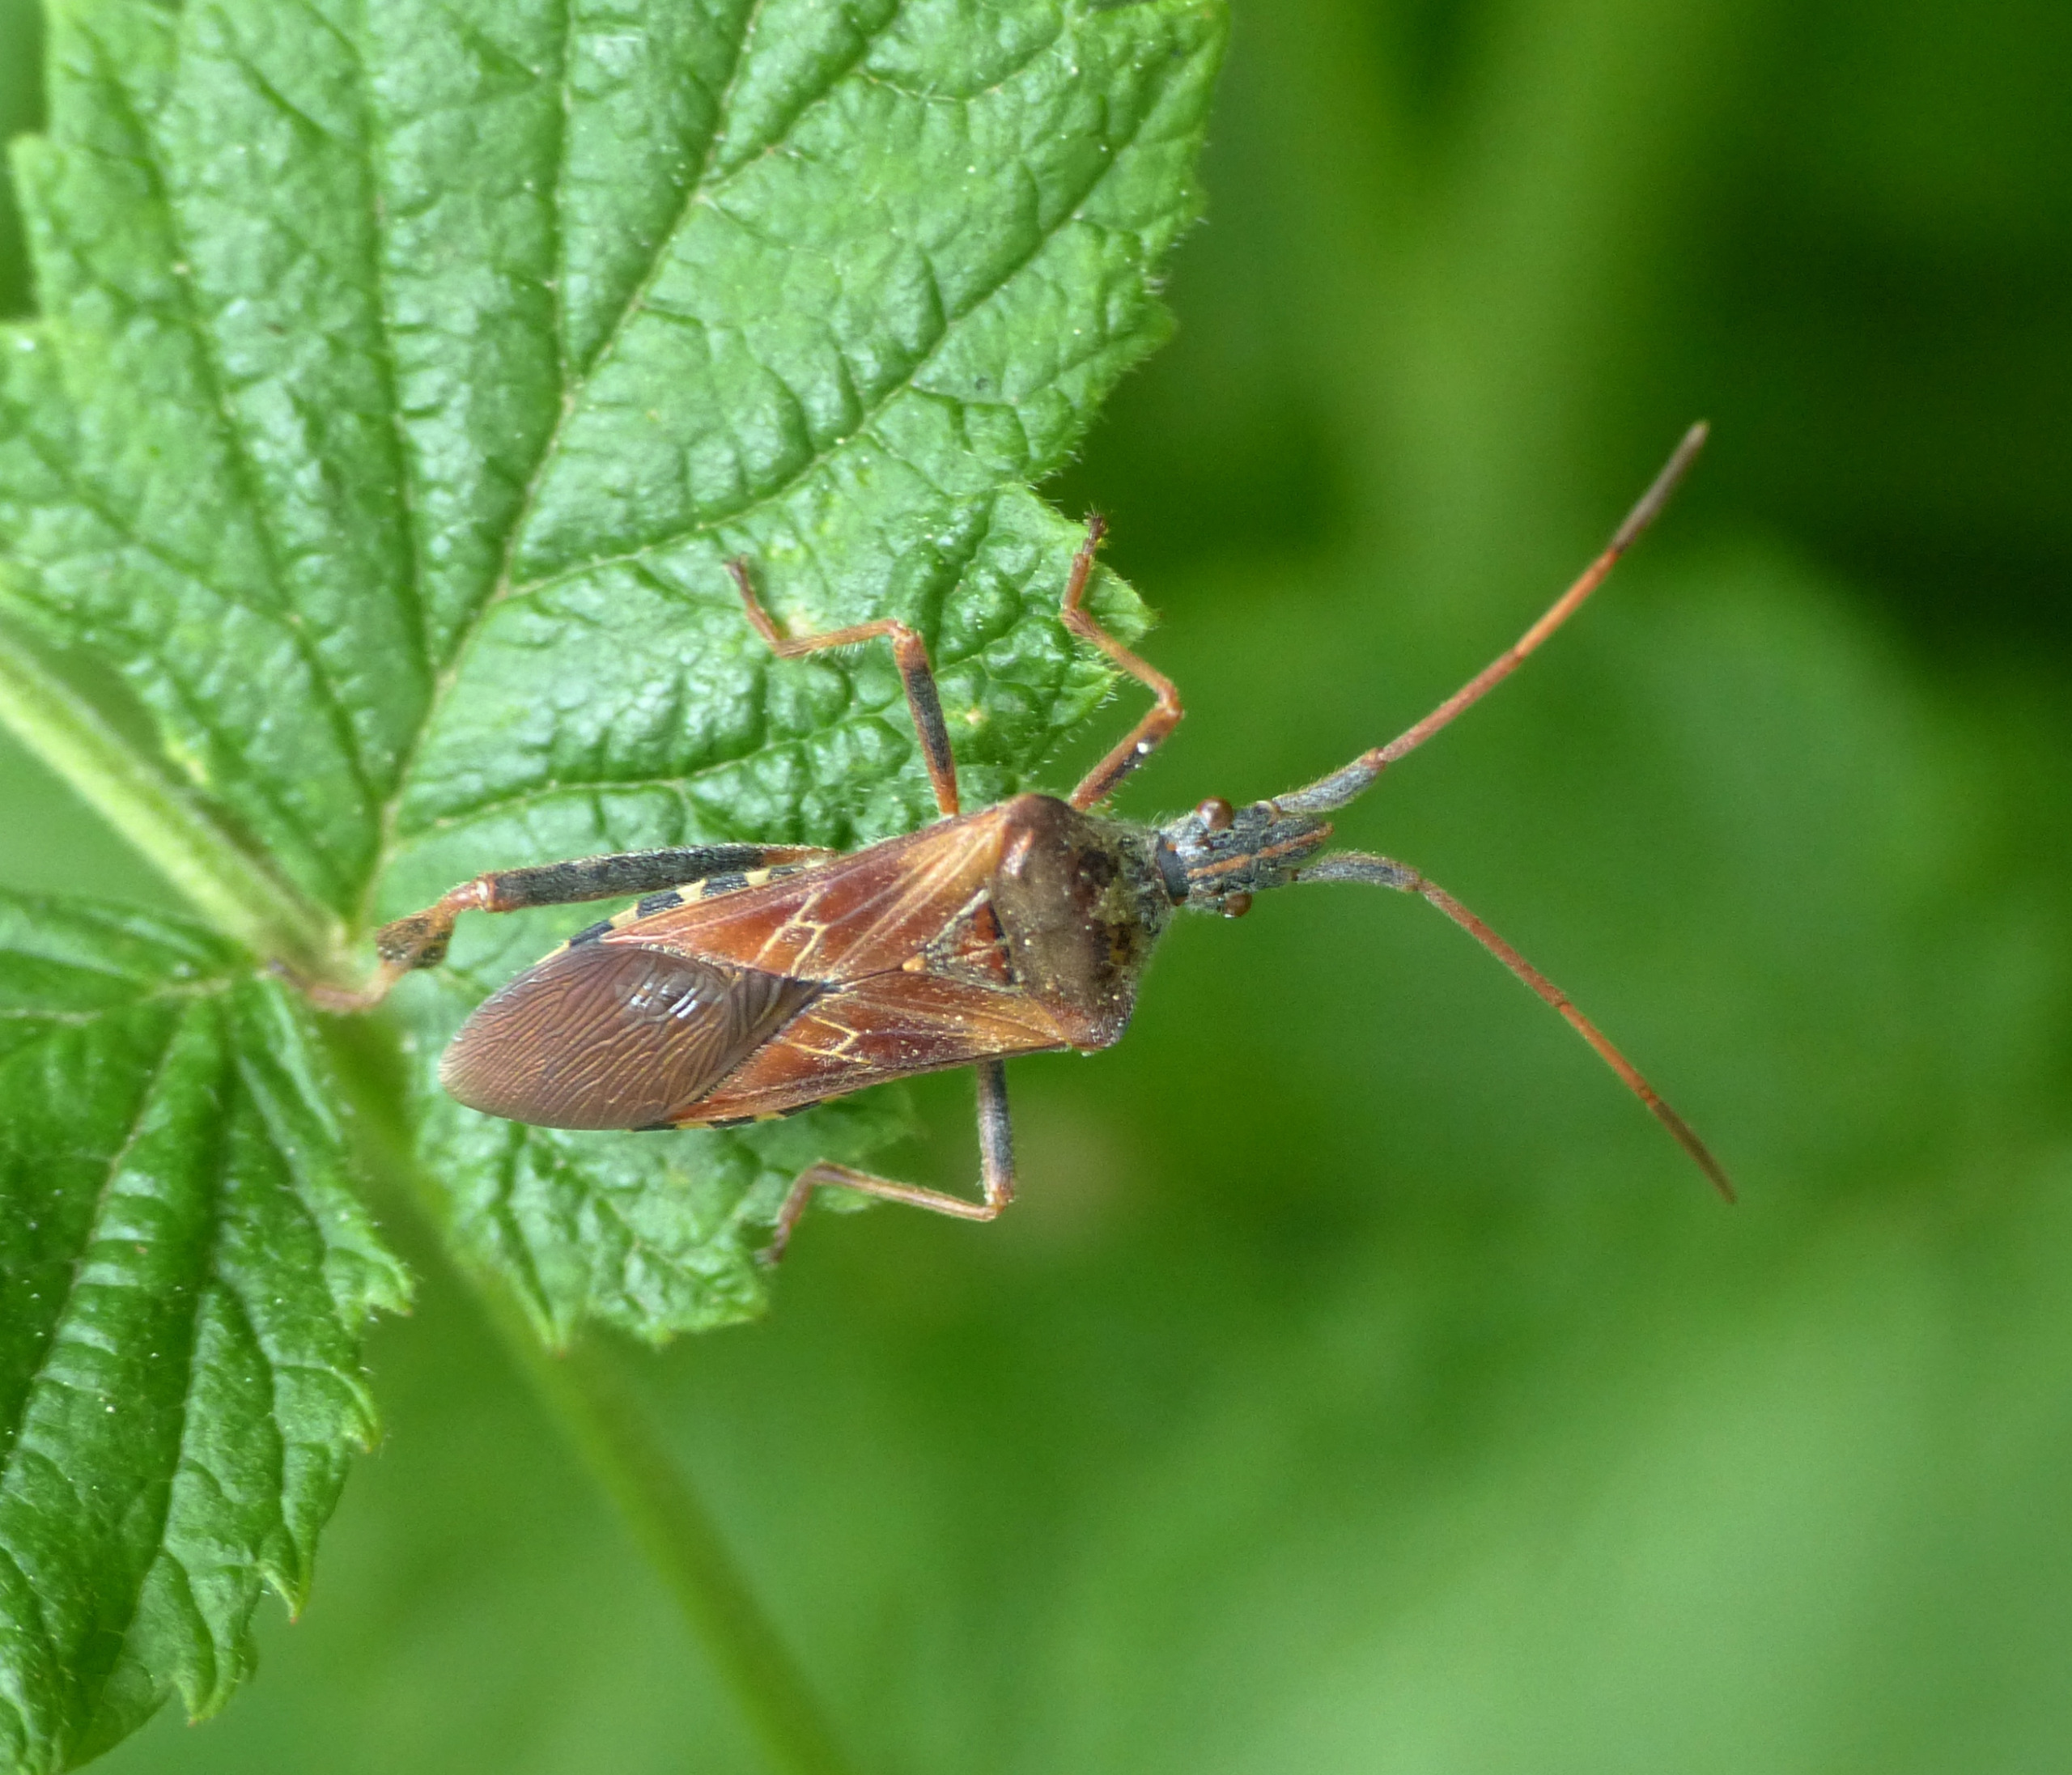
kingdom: Animalia
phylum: Arthropoda
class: Insecta
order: Hemiptera
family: Coreidae
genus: Leptoglossus
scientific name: Leptoglossus occidentalis
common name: Amerikansk fyrretæge
